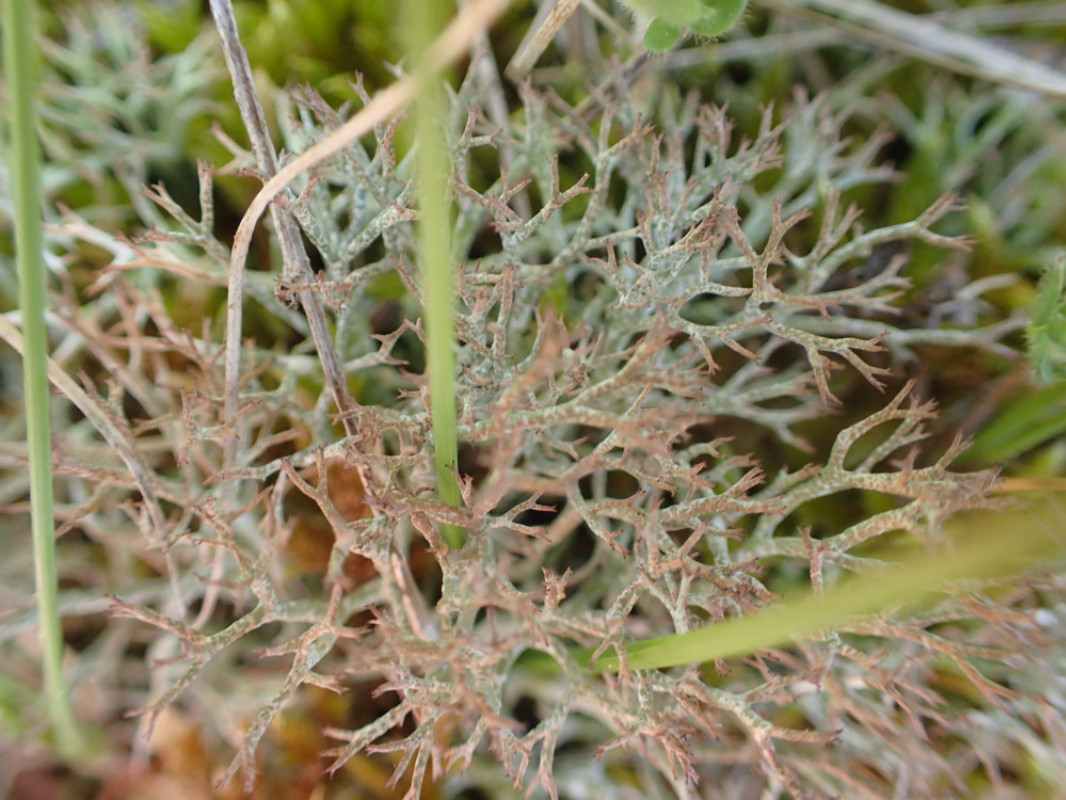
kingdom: Fungi
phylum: Ascomycota
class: Lecanoromycetes
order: Lecanorales
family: Cladoniaceae
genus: Cladonia
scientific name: Cladonia rangiformis
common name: spættet bægerlav
